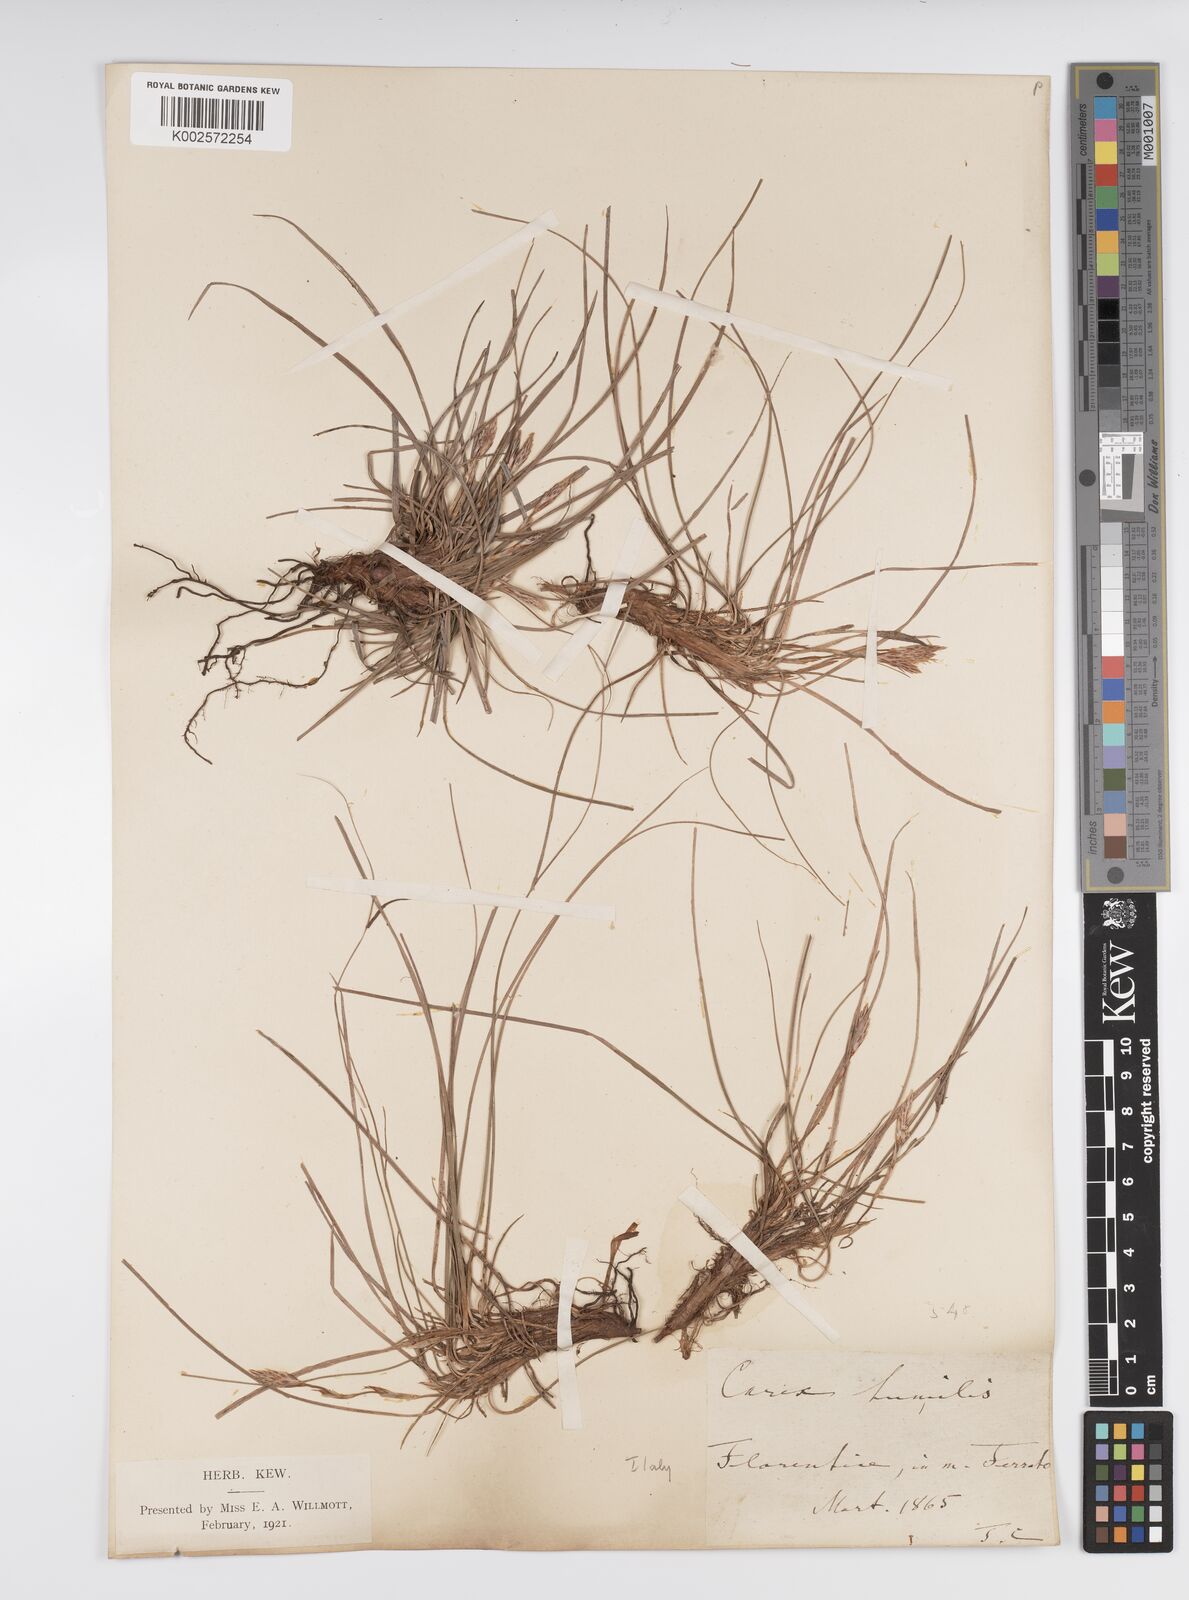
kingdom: Plantae
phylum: Tracheophyta
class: Liliopsida
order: Poales
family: Cyperaceae
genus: Carex
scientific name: Carex humilis
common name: Dwarf sedge
